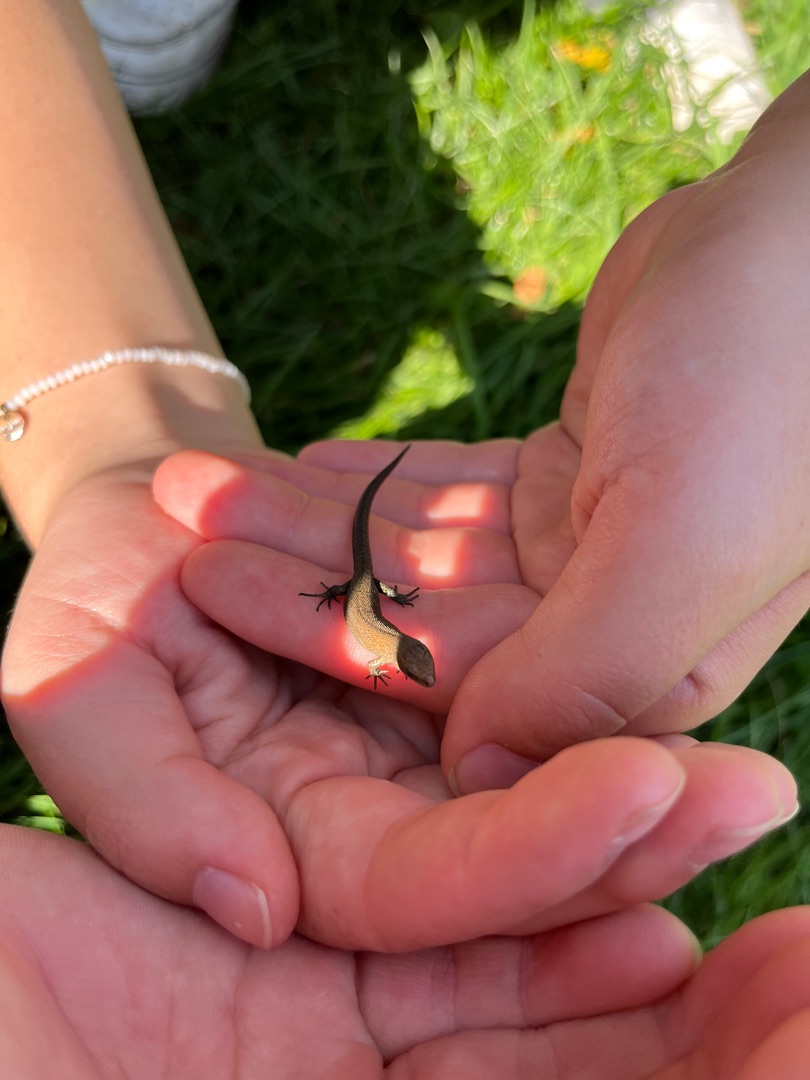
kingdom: Animalia
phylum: Chordata
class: Squamata
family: Lacertidae
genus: Zootoca
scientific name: Zootoca vivipara
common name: Skovfirben
